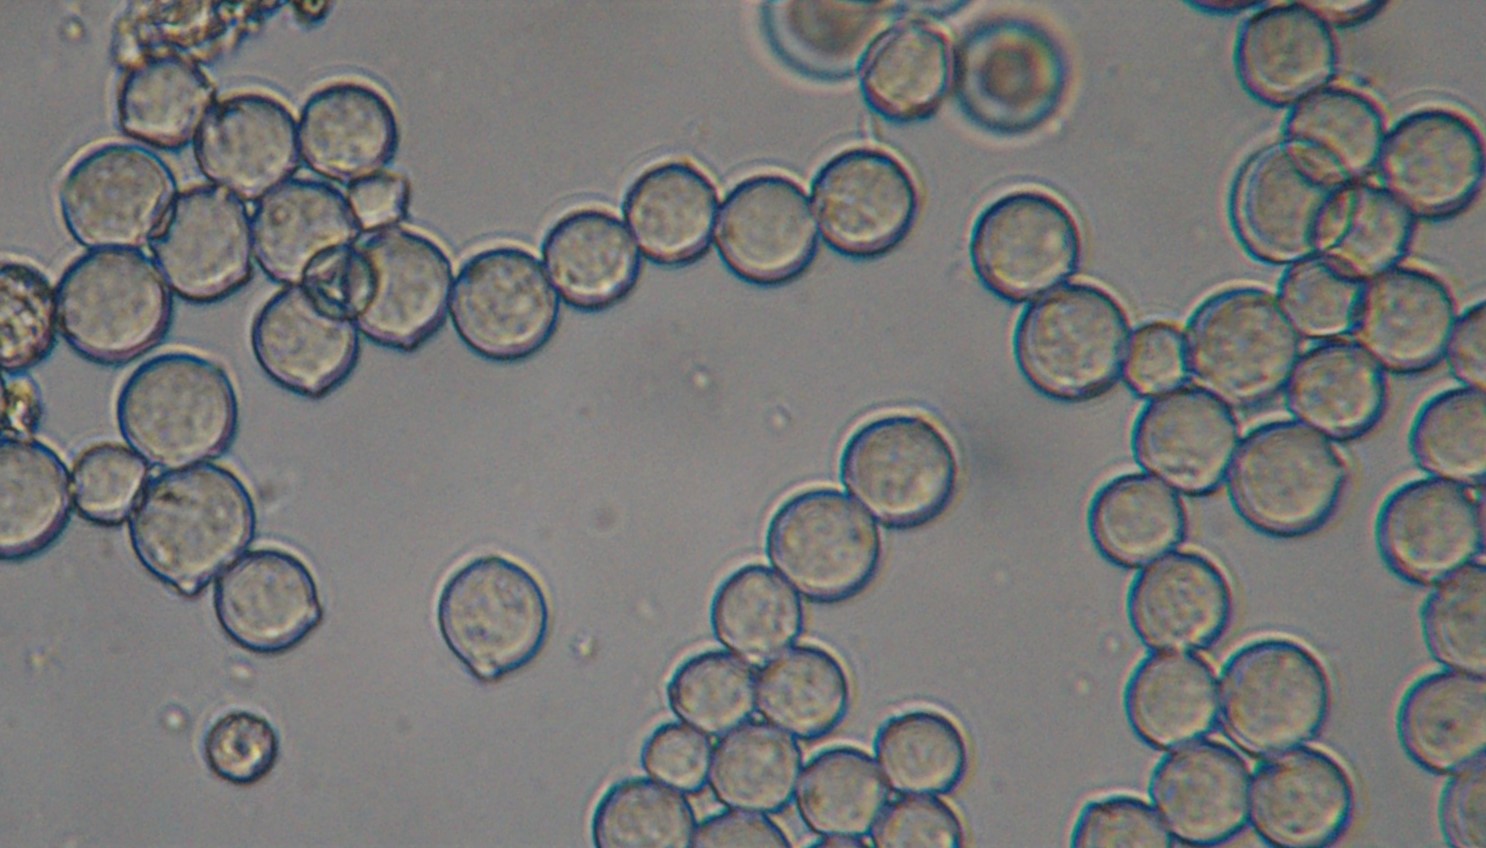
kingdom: Fungi
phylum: Ascomycota
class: Leotiomycetes
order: Helotiales
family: Sclerotiniaceae
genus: Monilinia
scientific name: Monilinia johnsonii
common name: tjørnebær-knoldskive
